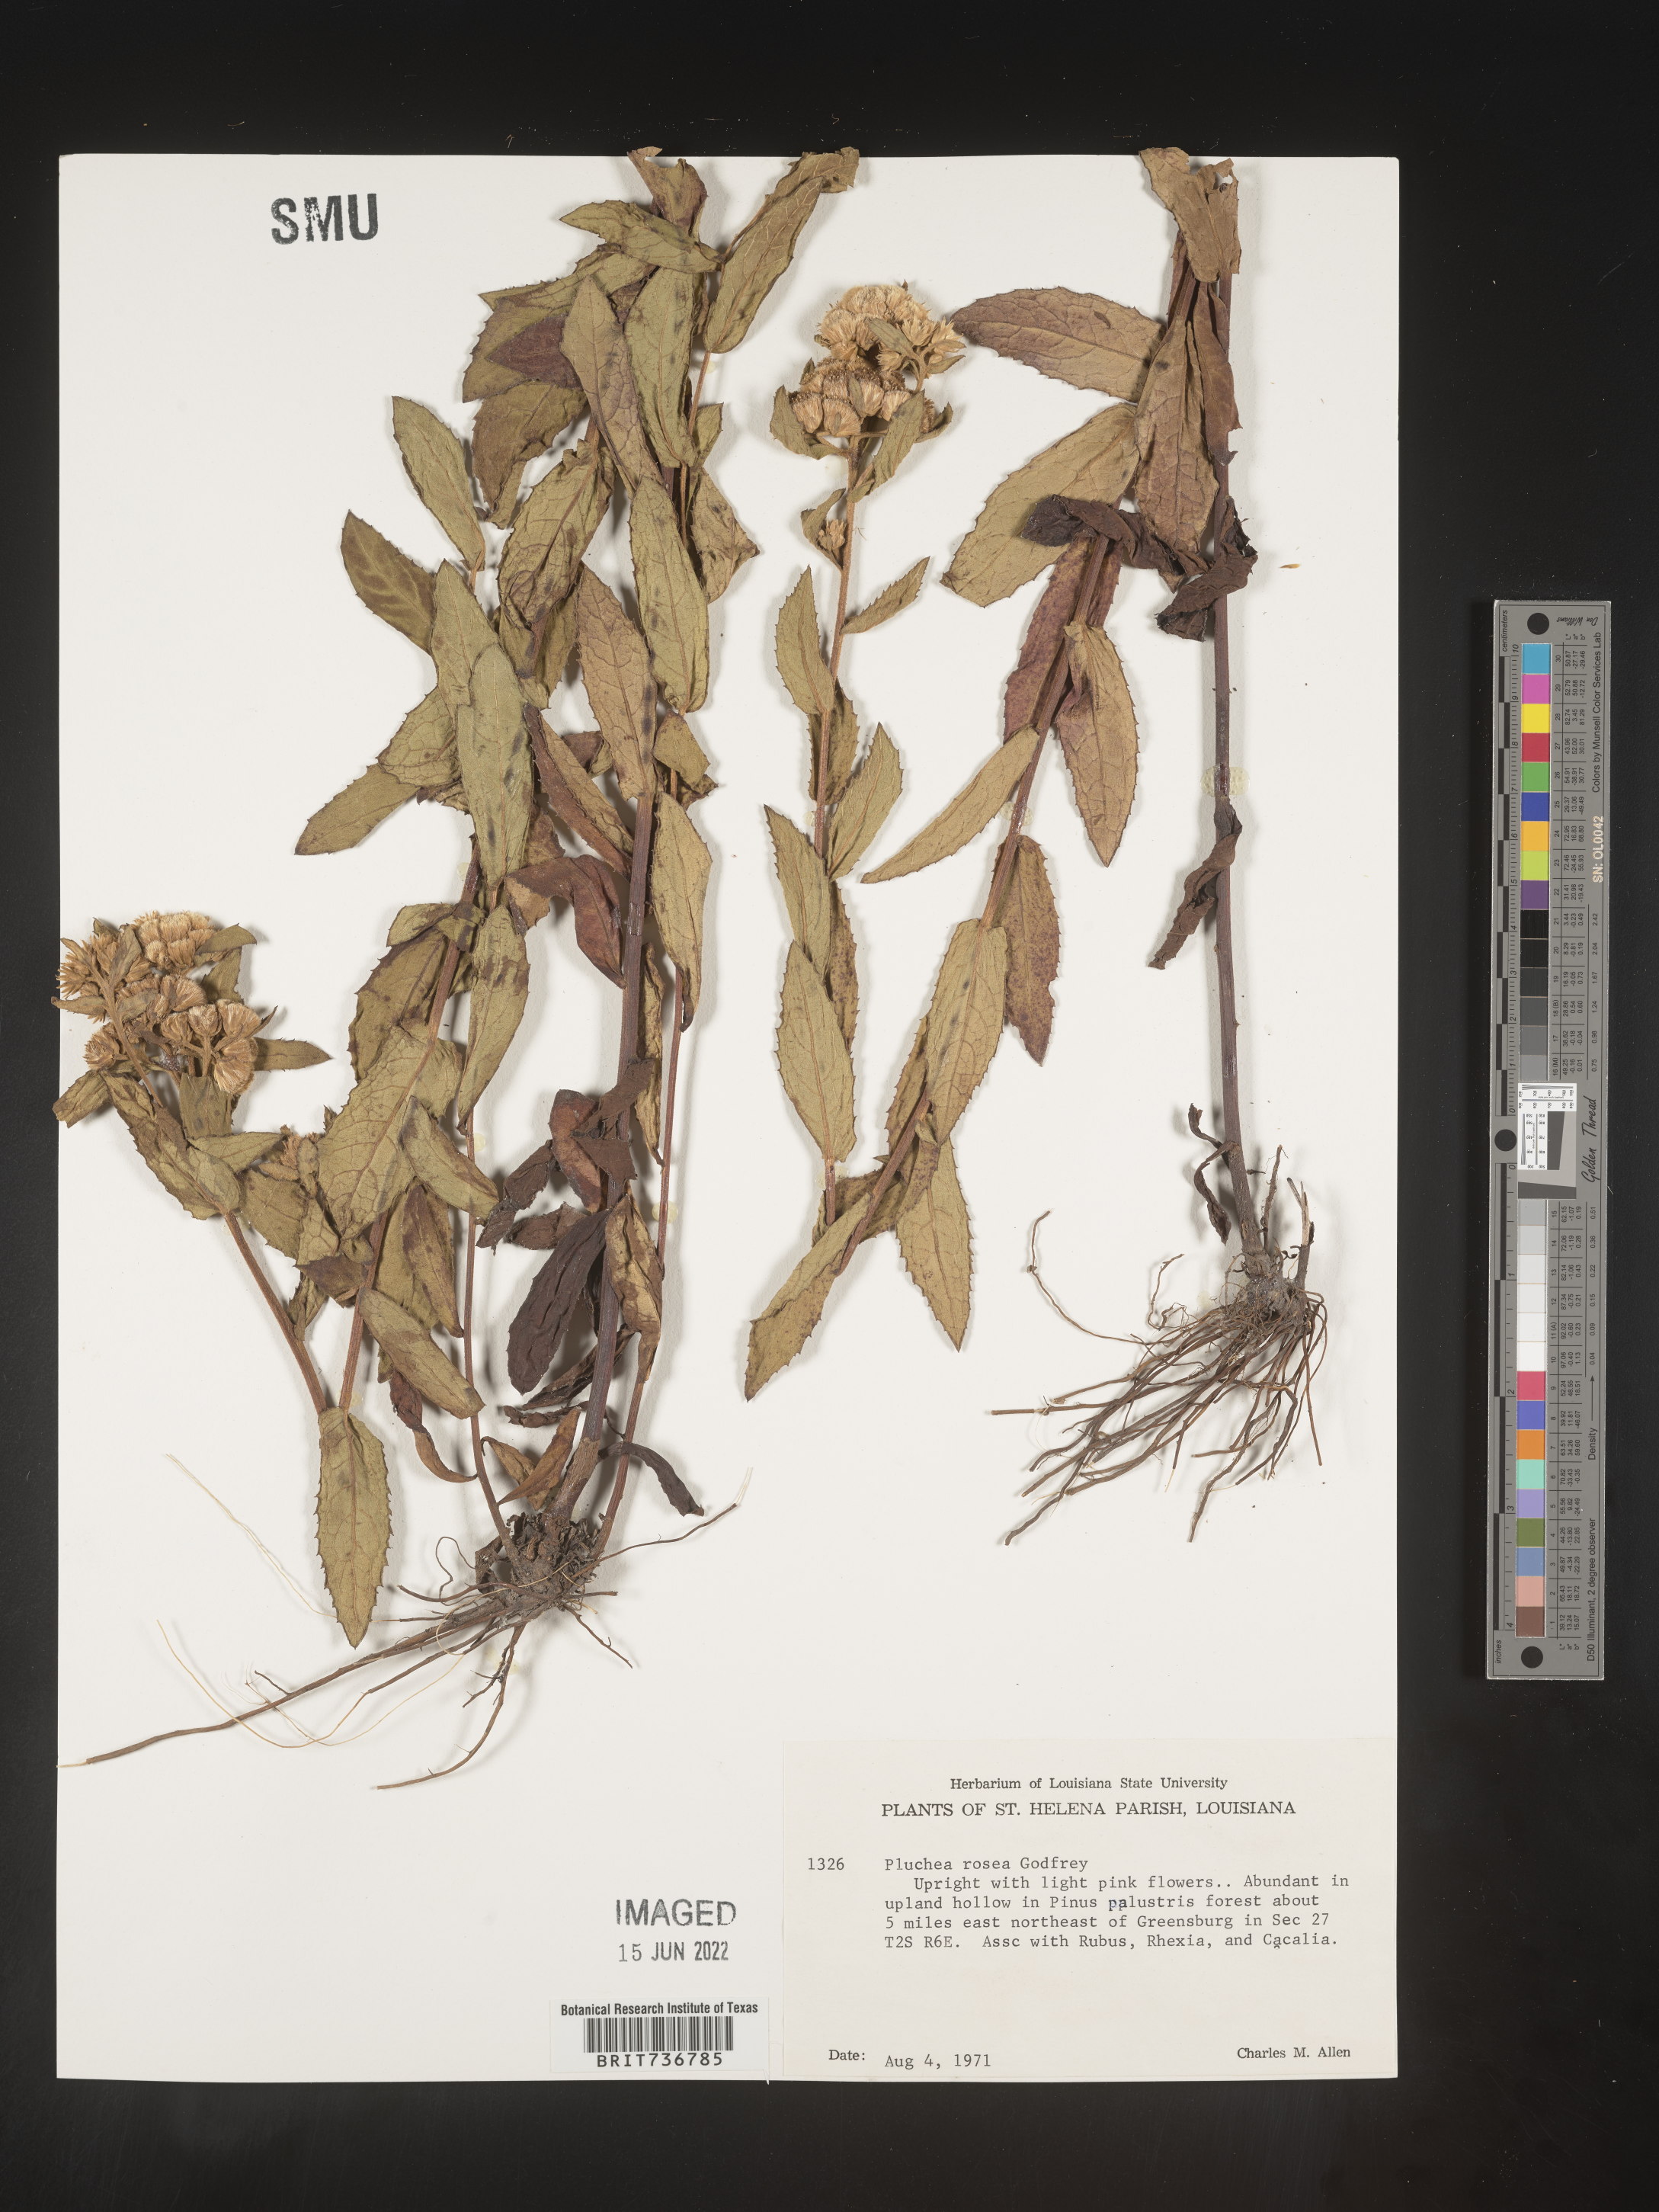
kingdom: Plantae
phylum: Tracheophyta
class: Magnoliopsida
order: Asterales
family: Asteraceae
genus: Pluchea
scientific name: Pluchea baccharis
